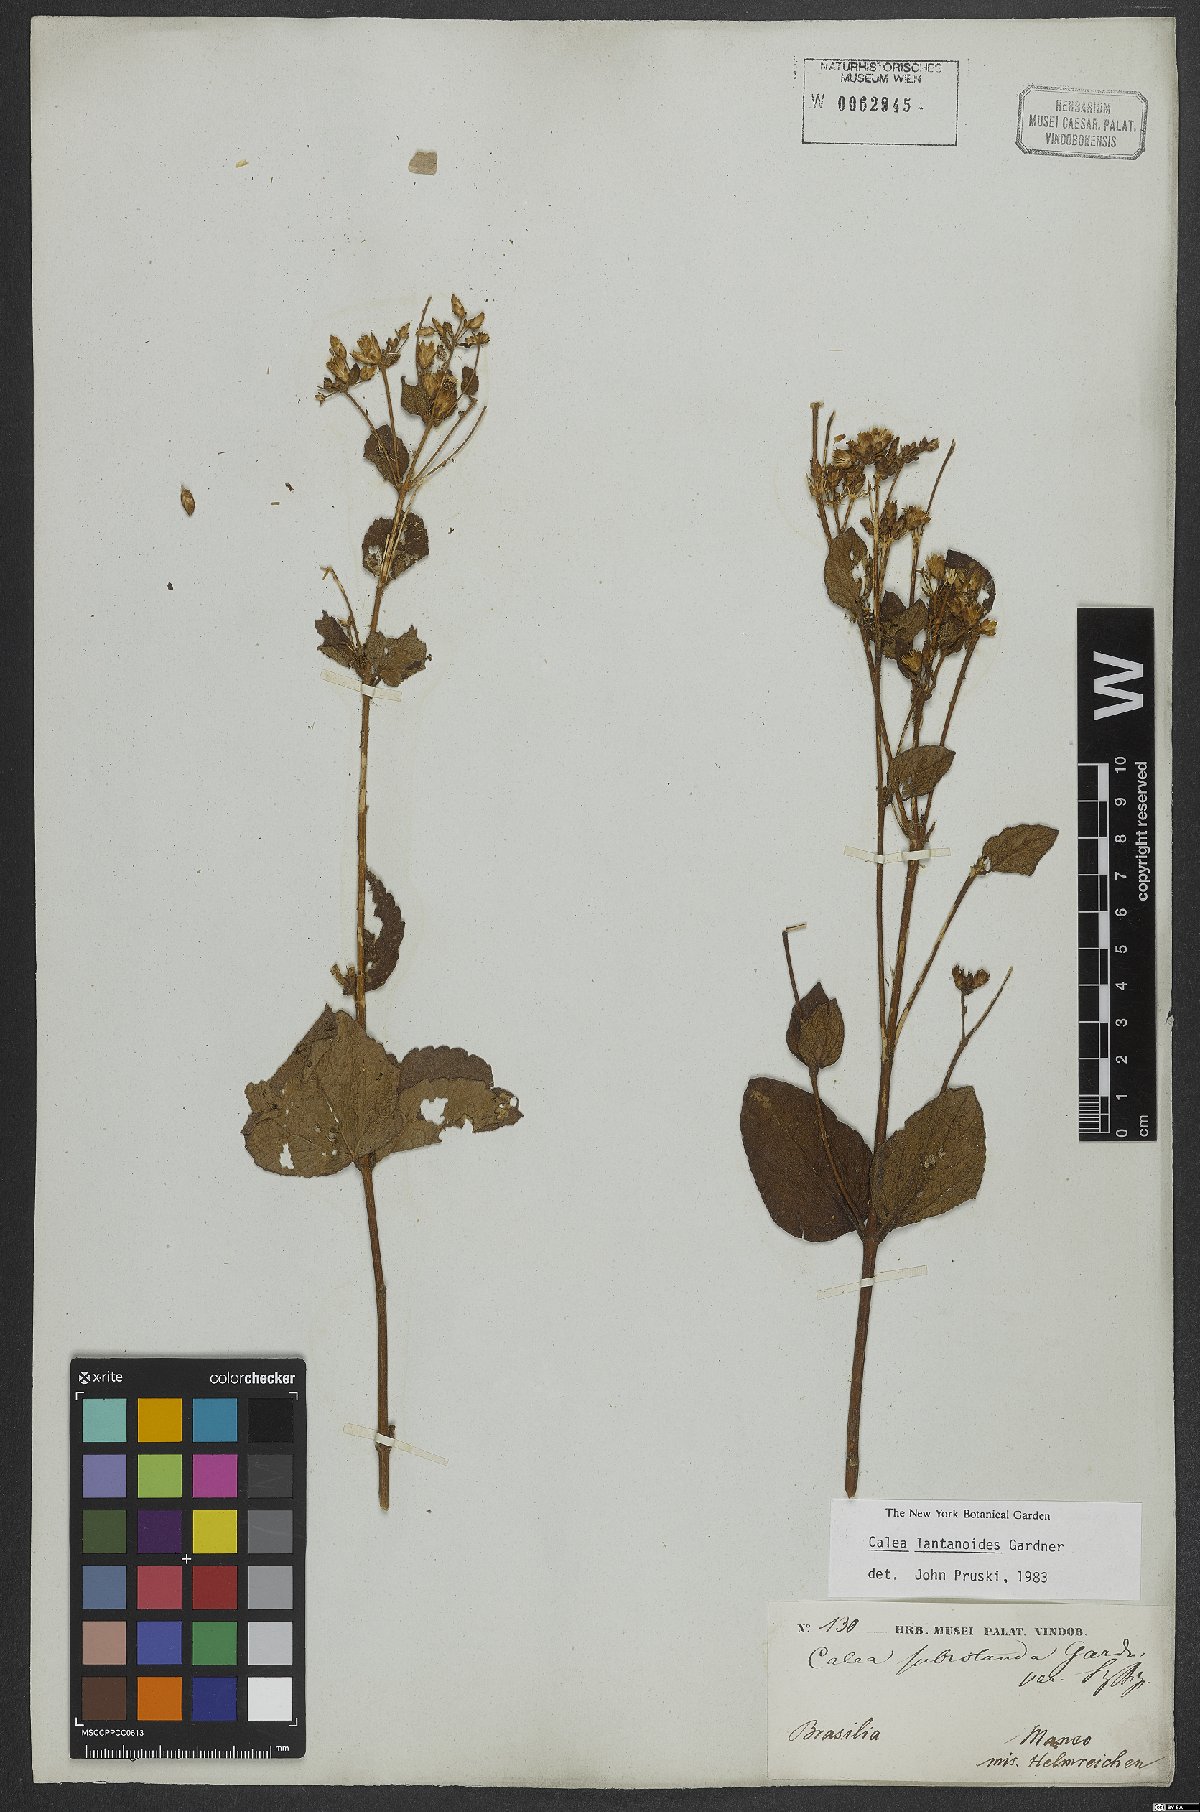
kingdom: Plantae
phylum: Tracheophyta
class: Magnoliopsida
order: Asterales
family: Asteraceae
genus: Calea
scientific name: Calea lantanoides
